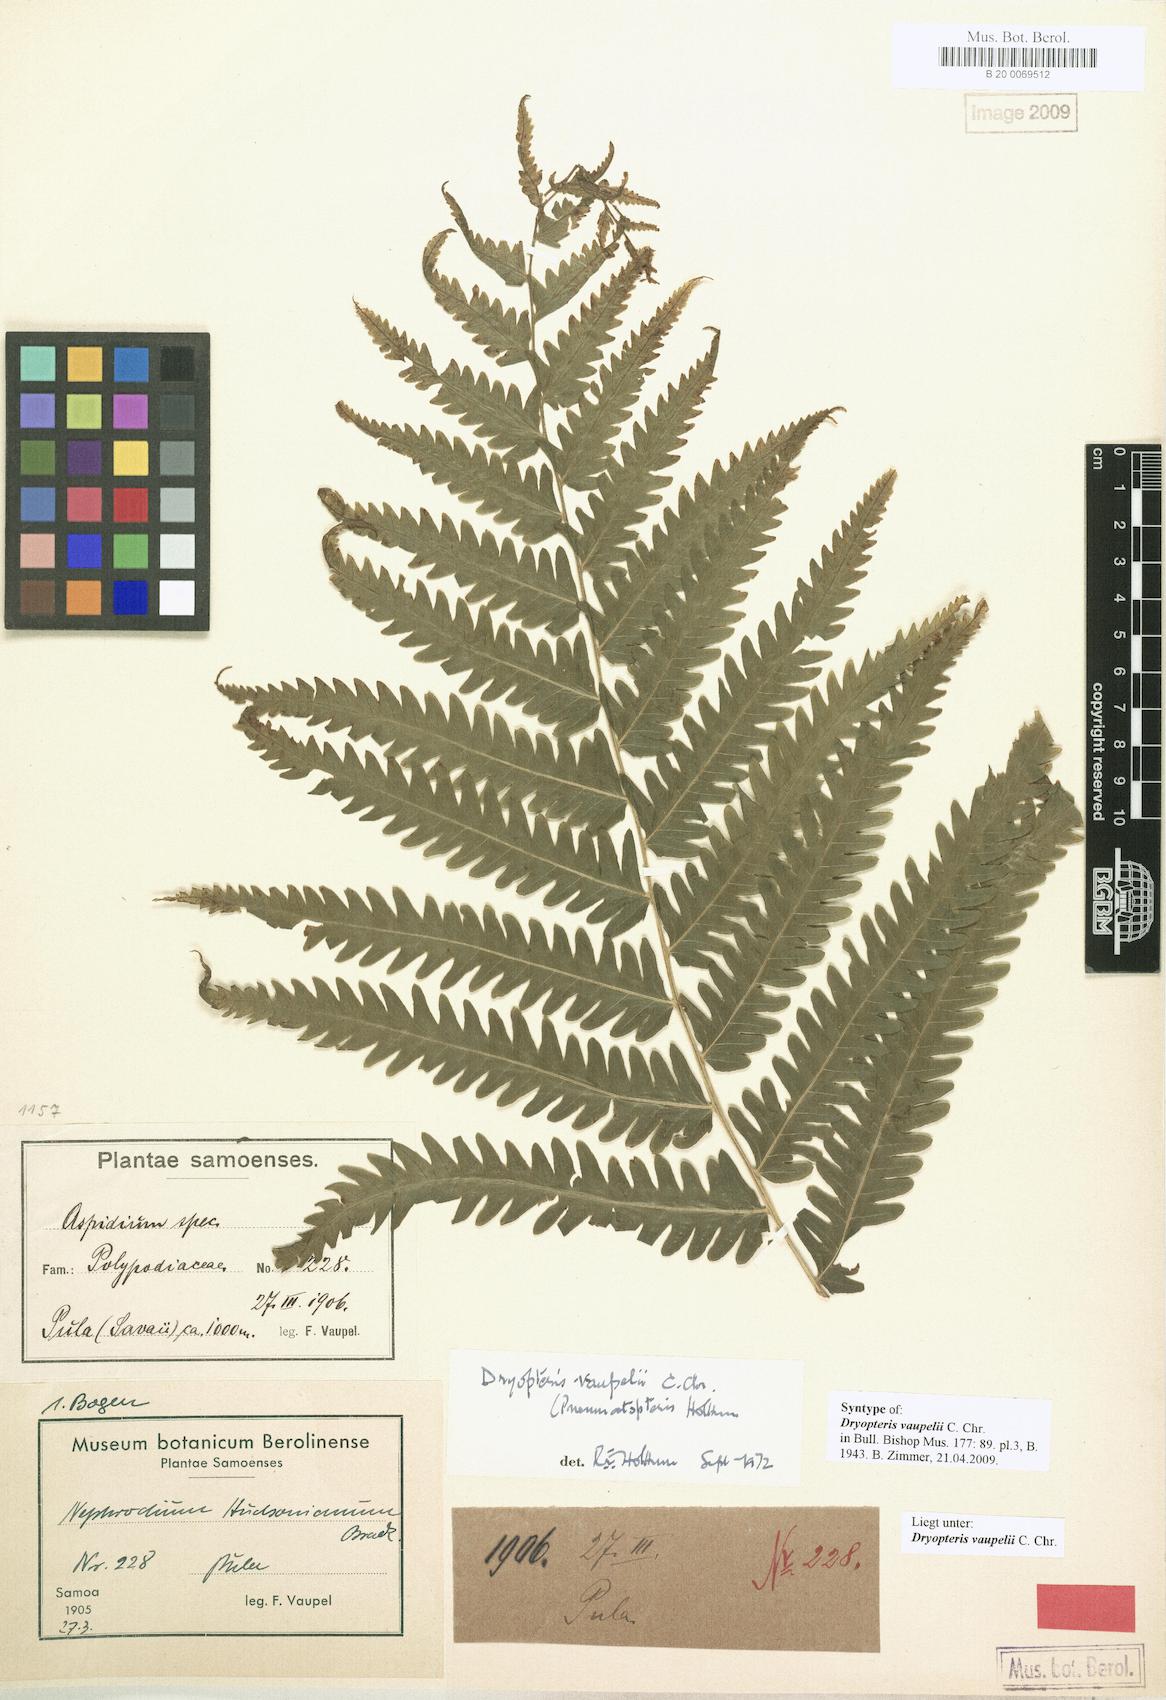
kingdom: Plantae
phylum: Tracheophyta
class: Polypodiopsida
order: Polypodiales
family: Thelypteridaceae
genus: Reholttumia
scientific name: Reholttumia vaupelii
